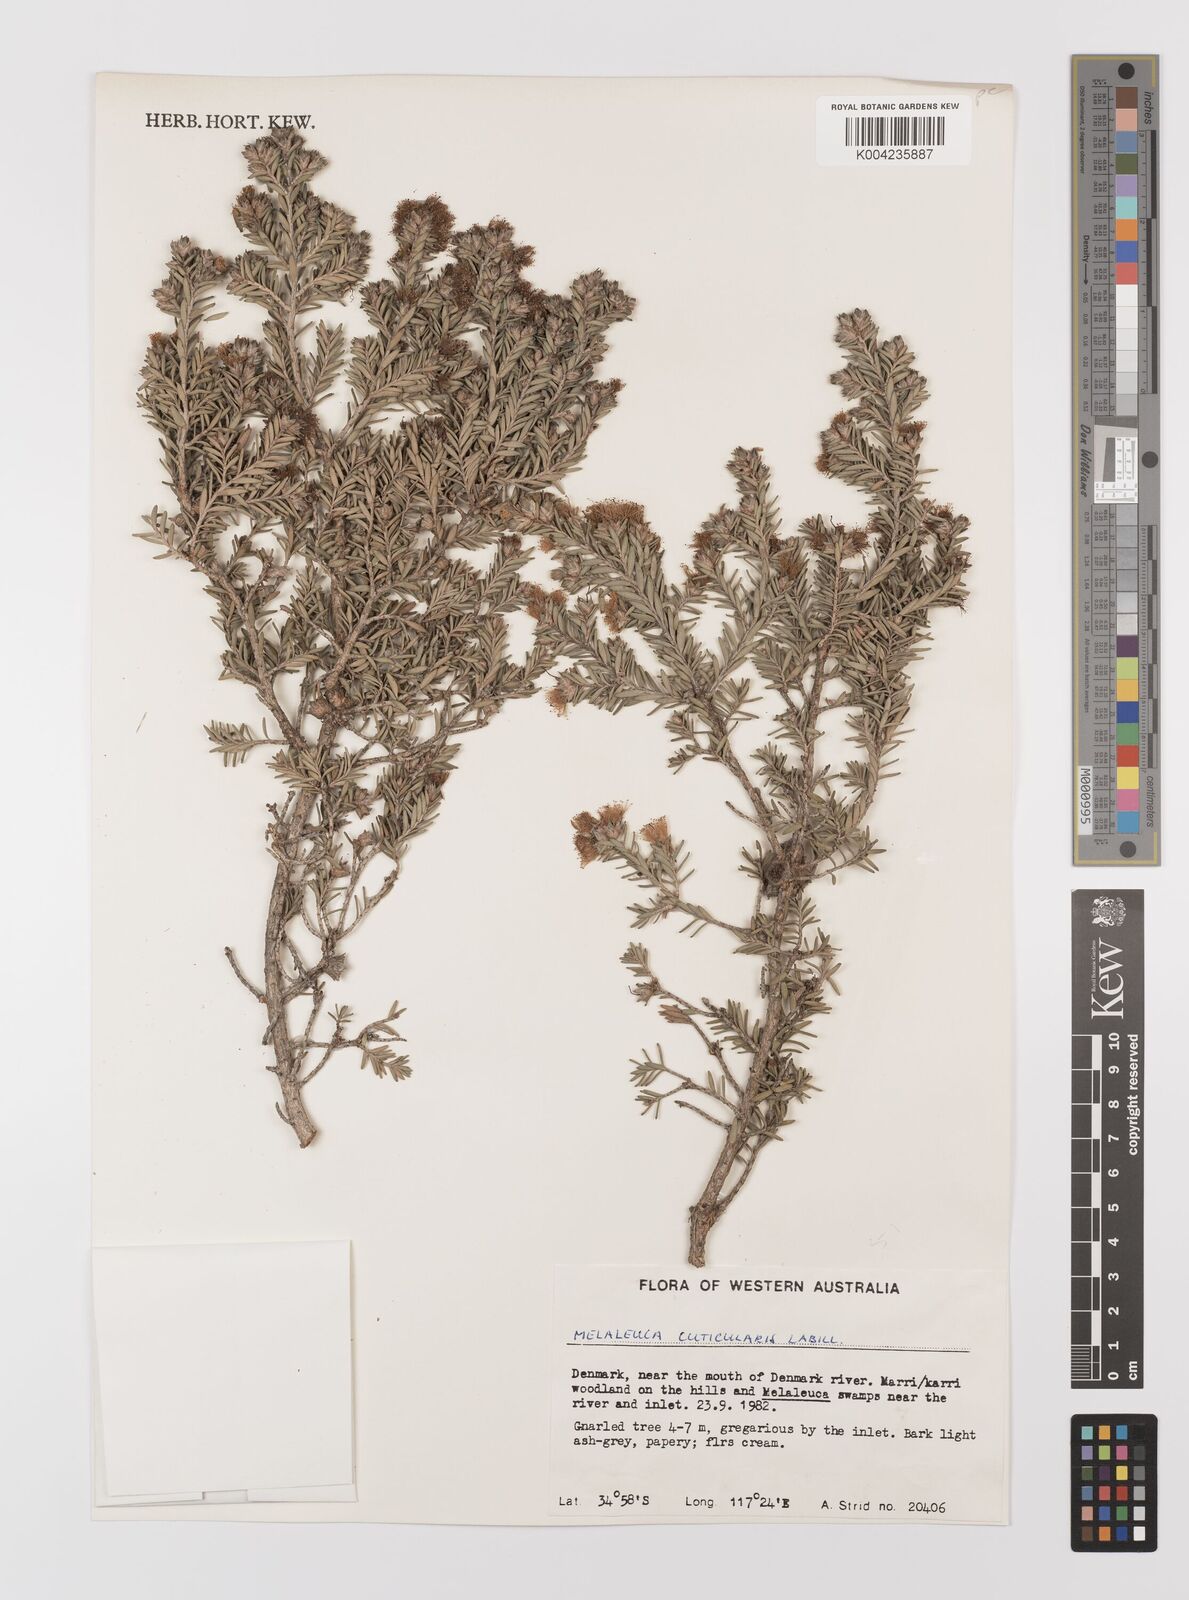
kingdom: Plantae
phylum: Tracheophyta
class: Magnoliopsida
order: Myrtales
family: Myrtaceae
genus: Melaleuca
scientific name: Melaleuca cuticularis
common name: Saltwater paperbark
